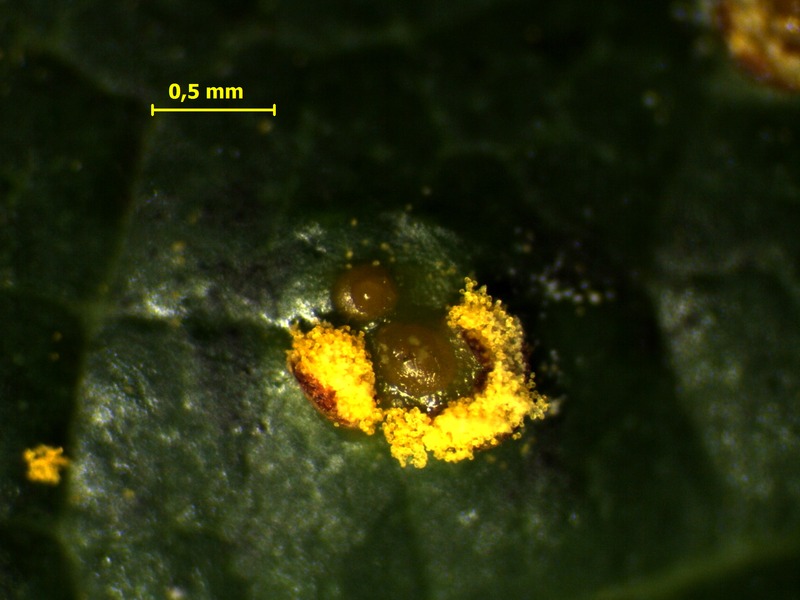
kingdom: Fungi
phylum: Basidiomycota
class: Pucciniomycetes
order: Pucciniales
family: Phragmidiaceae
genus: Kuehneola
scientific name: Kuehneola uredinis
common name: Bramble stem rust
